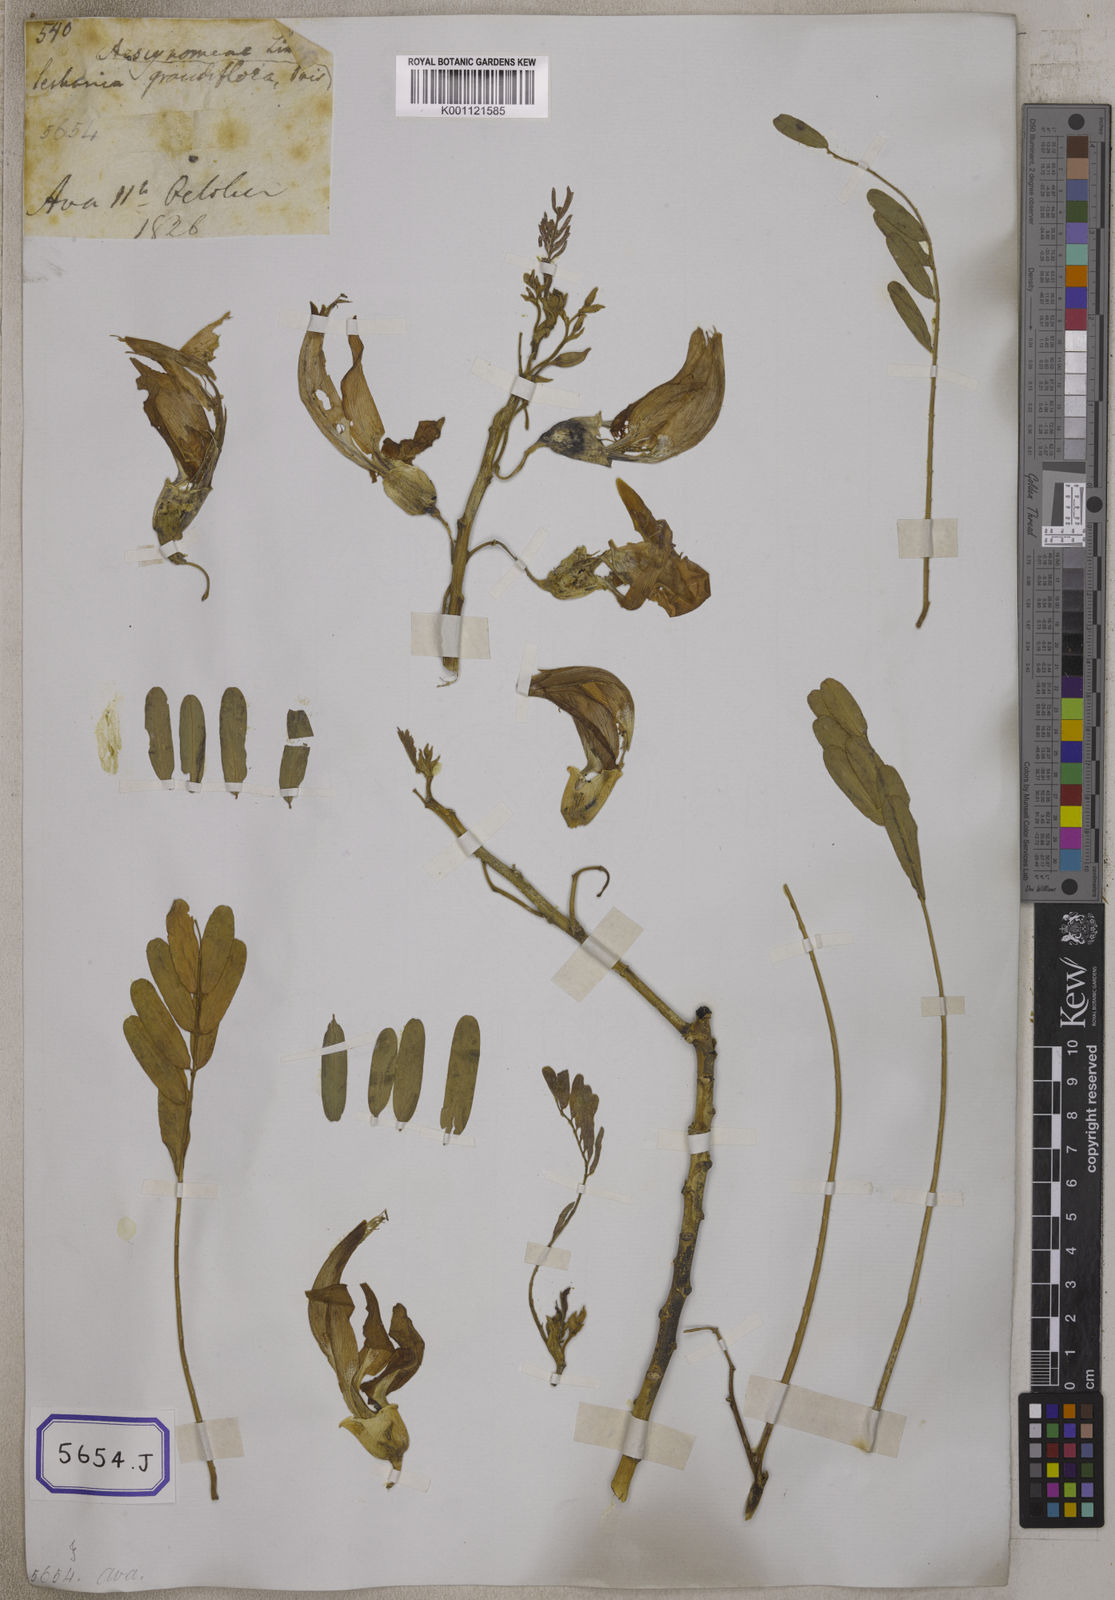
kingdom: Plantae
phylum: Tracheophyta
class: Magnoliopsida
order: Fabales
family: Fabaceae
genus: Sesbania
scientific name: Sesbania grandiflora
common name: Vegetable-hummingbird
